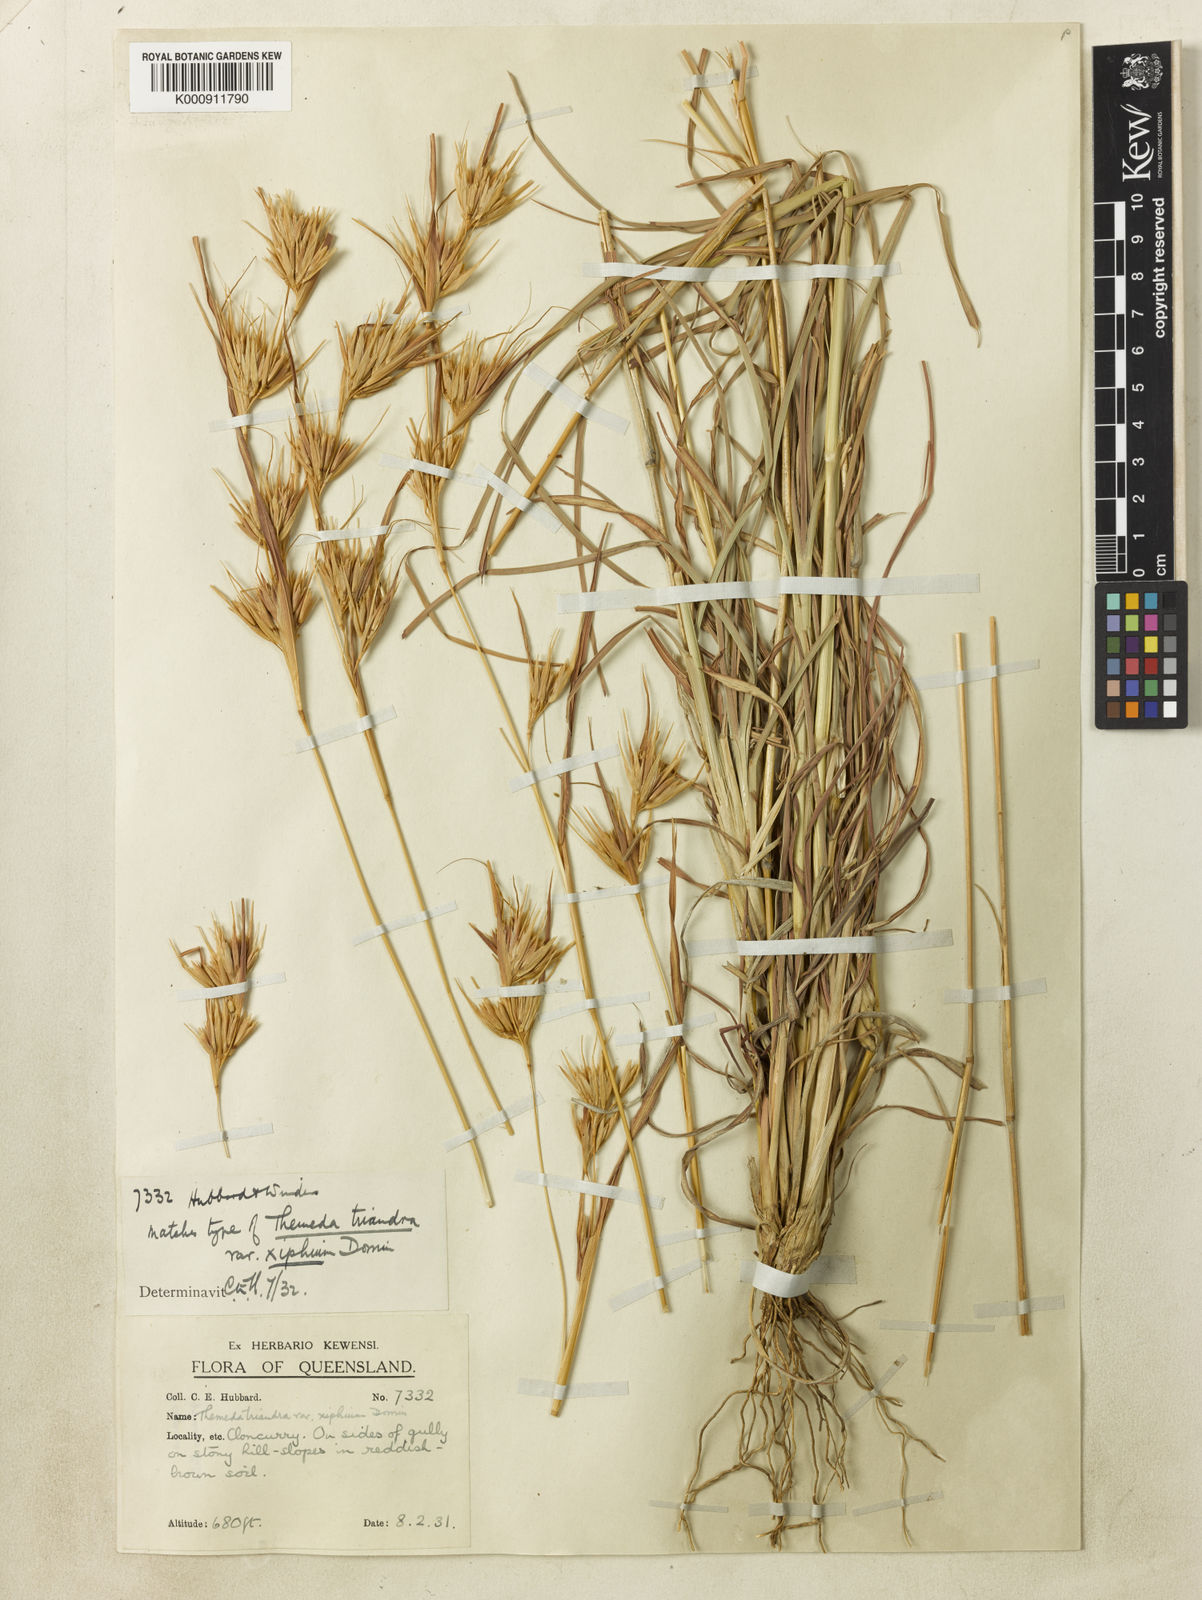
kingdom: Plantae
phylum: Tracheophyta
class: Liliopsida
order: Poales
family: Poaceae
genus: Themeda
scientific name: Themeda triandra
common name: Kangaroo grass
